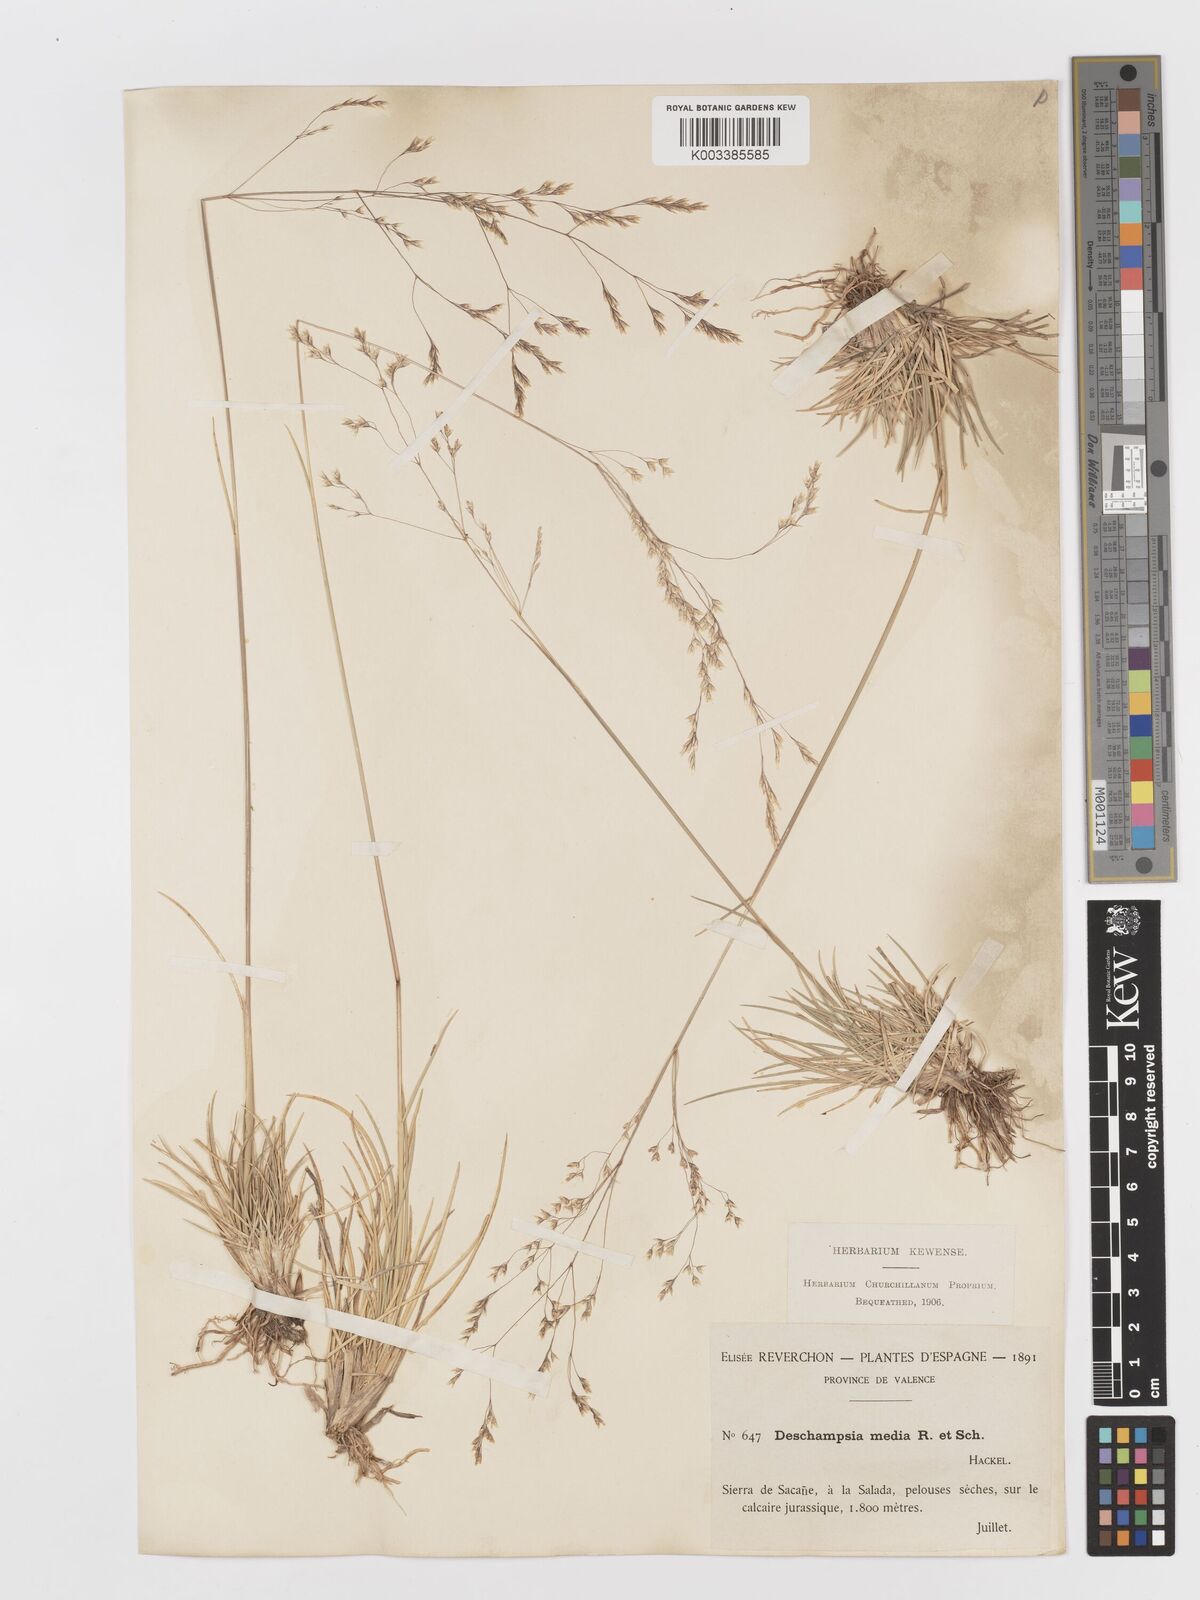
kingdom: Plantae
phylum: Tracheophyta
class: Liliopsida
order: Poales
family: Poaceae
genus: Deschampsia
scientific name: Deschampsia media
